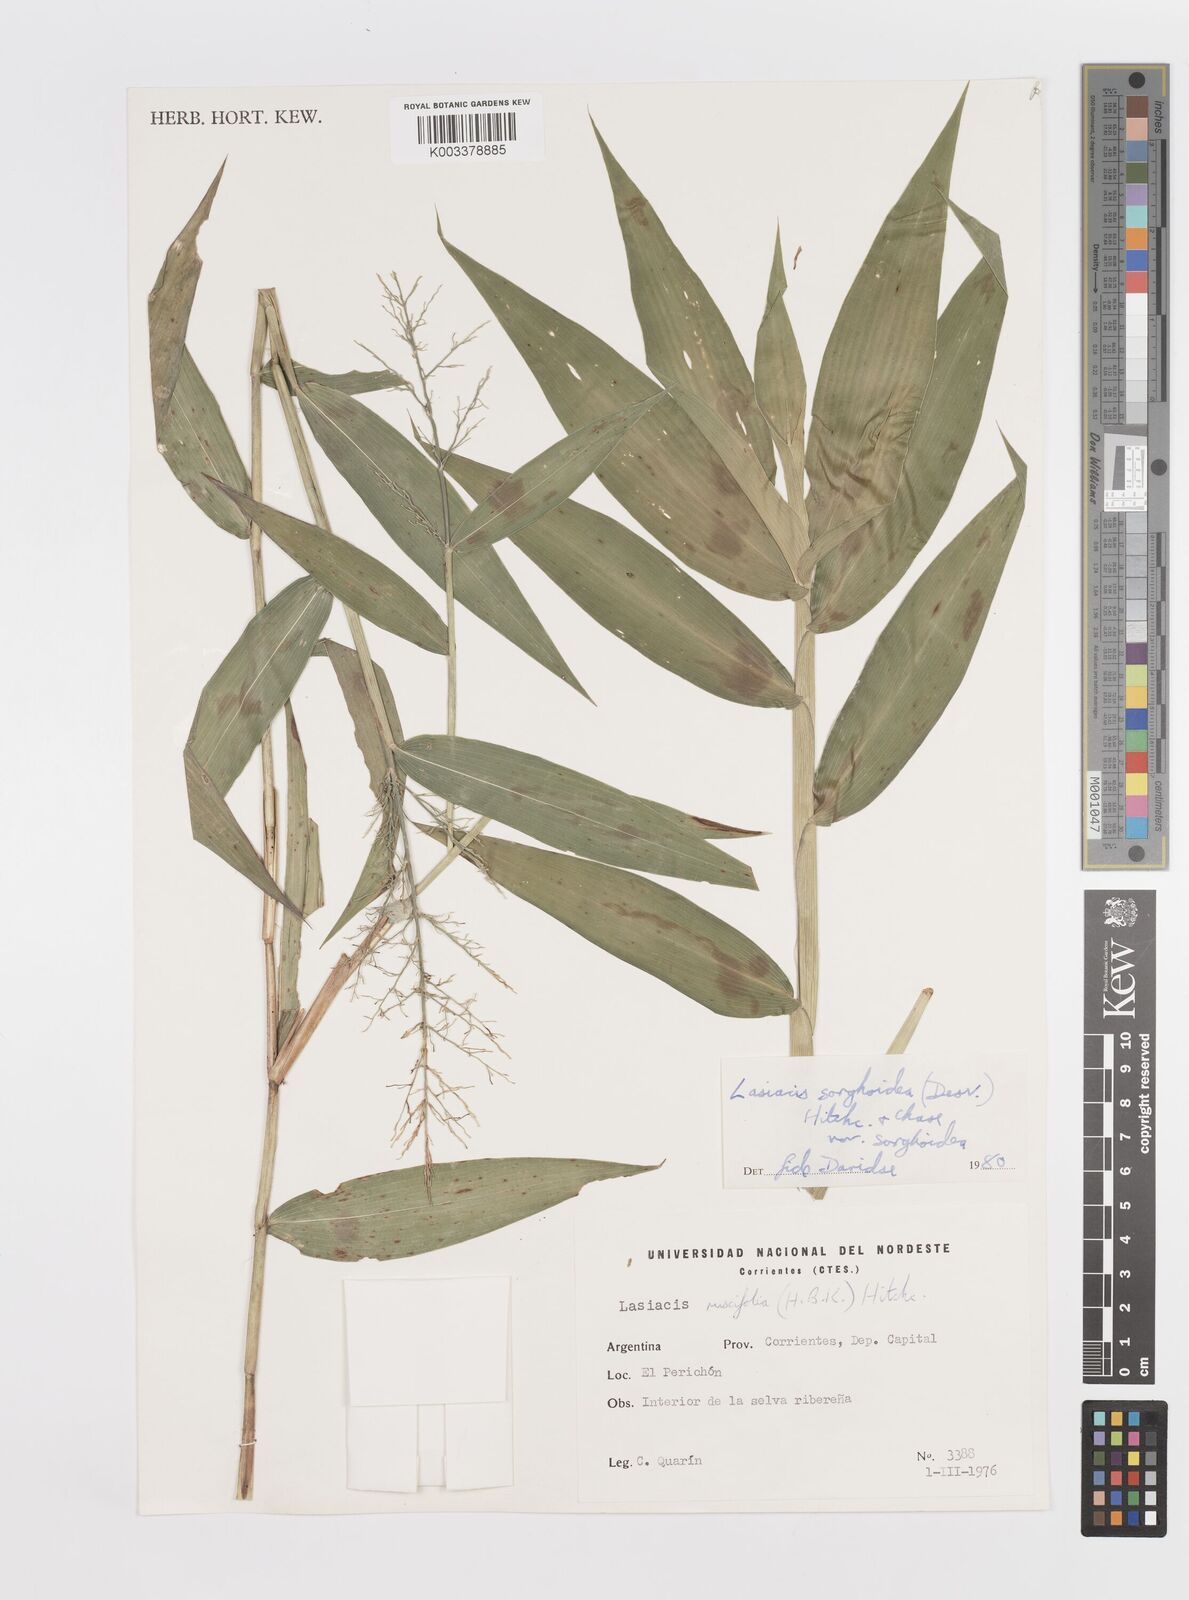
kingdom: Plantae
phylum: Tracheophyta
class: Liliopsida
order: Poales
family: Poaceae
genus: Lasiacis
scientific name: Lasiacis maculata
